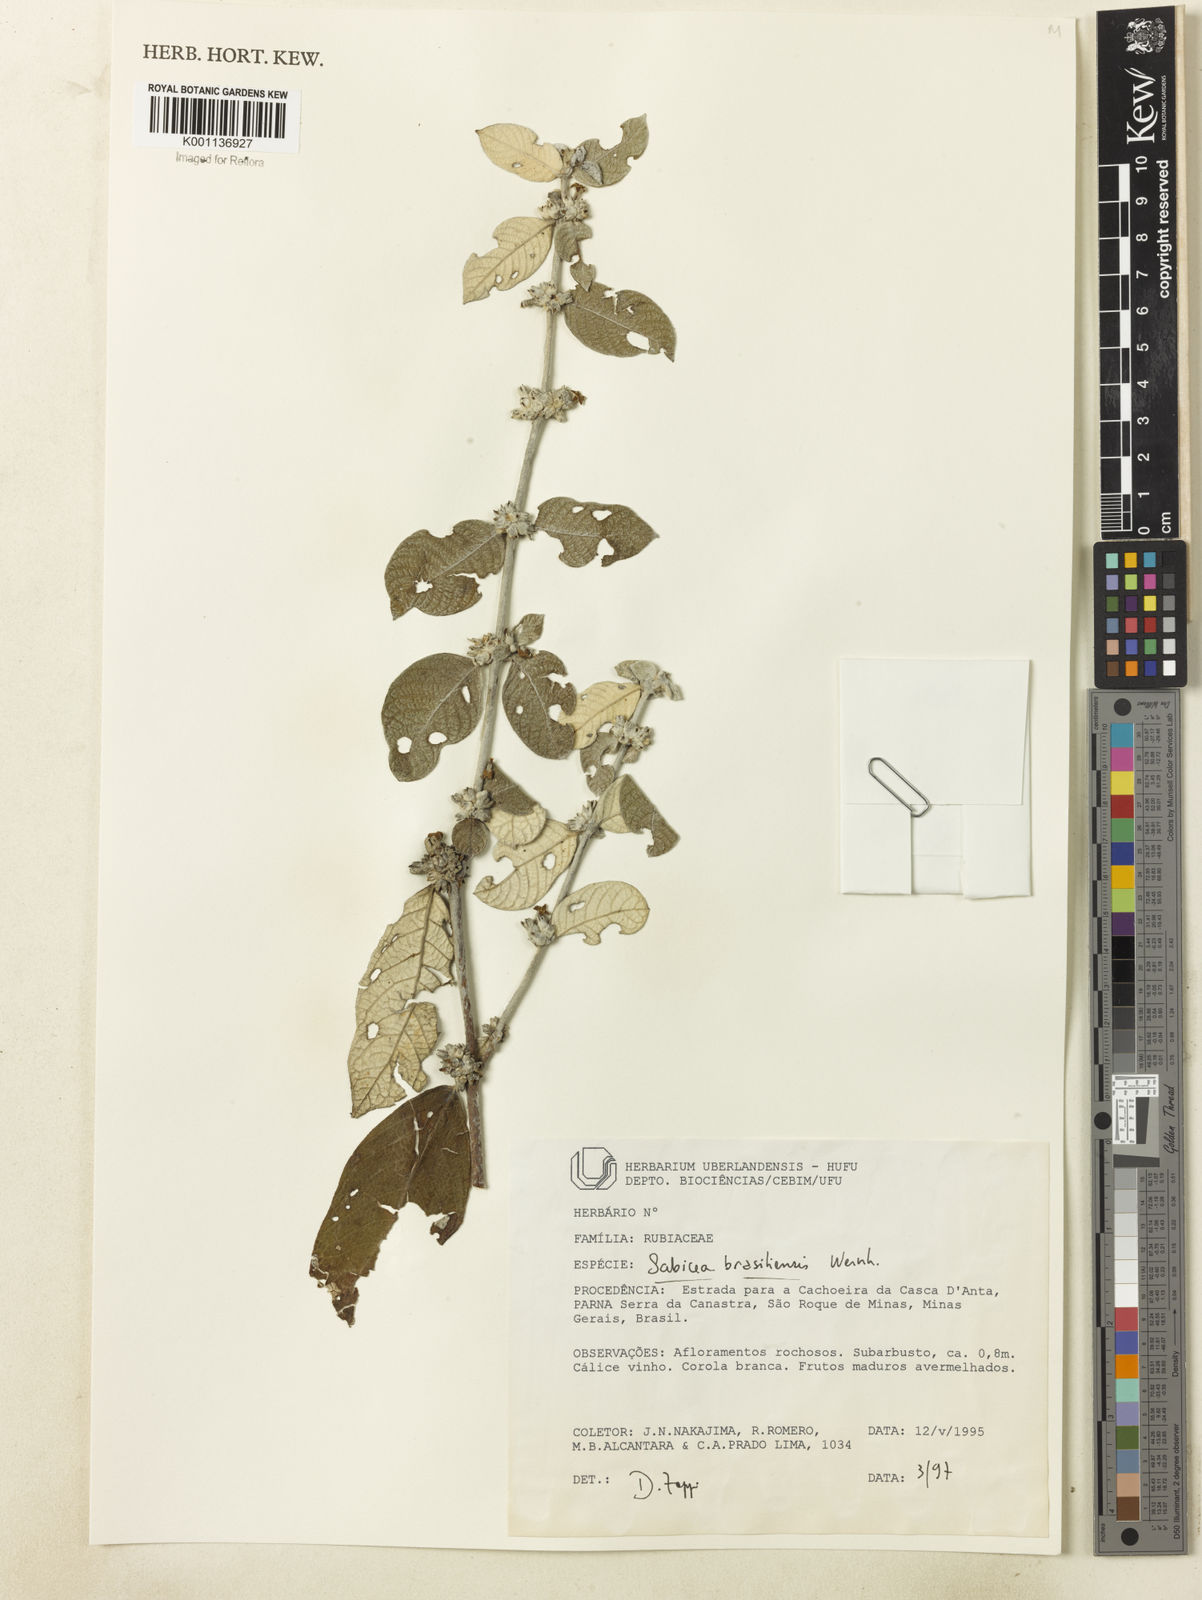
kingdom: Plantae
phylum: Tracheophyta
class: Magnoliopsida
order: Gentianales
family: Rubiaceae
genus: Sabicea
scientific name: Sabicea brasiliensis
